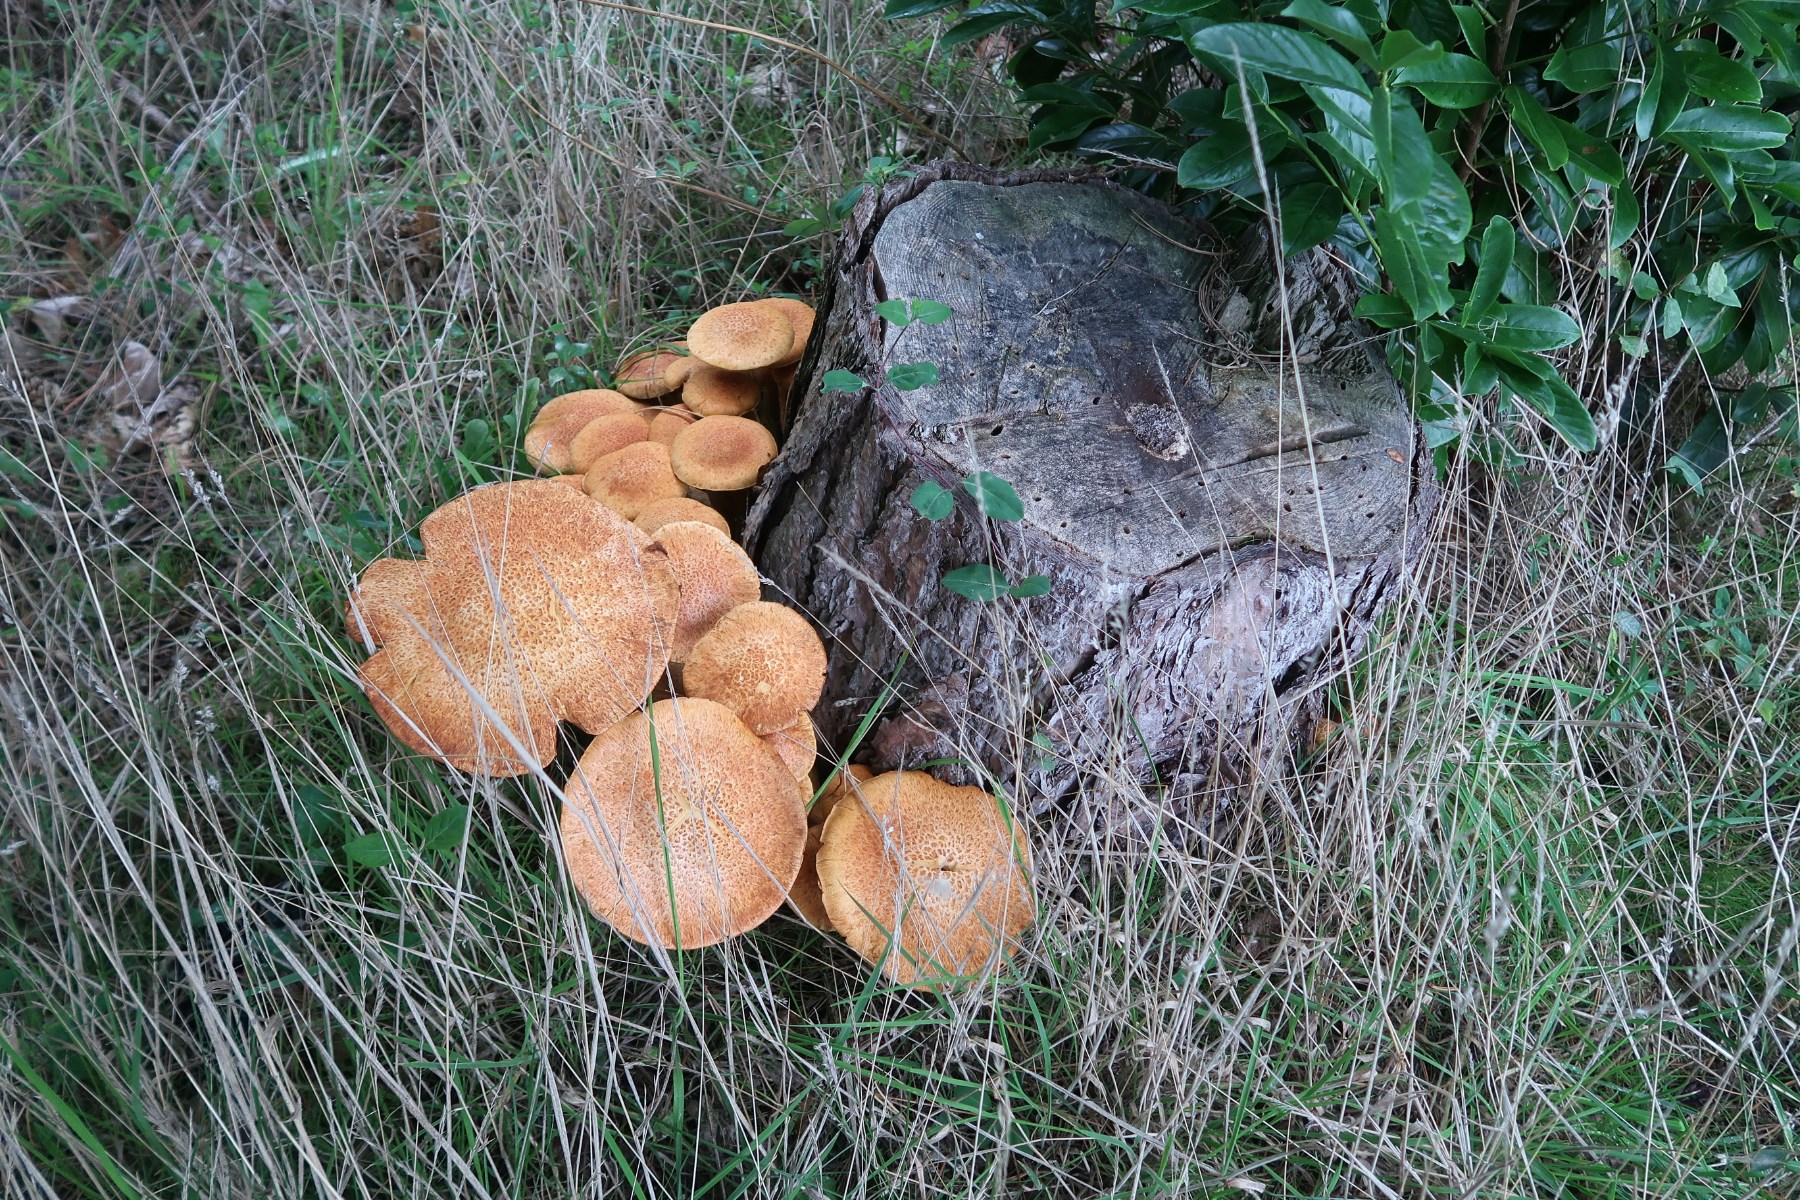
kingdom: Fungi
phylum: Basidiomycota
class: Agaricomycetes
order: Agaricales
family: Hymenogastraceae
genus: Gymnopilus
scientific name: Gymnopilus spectabilis
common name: fibret flammehat
